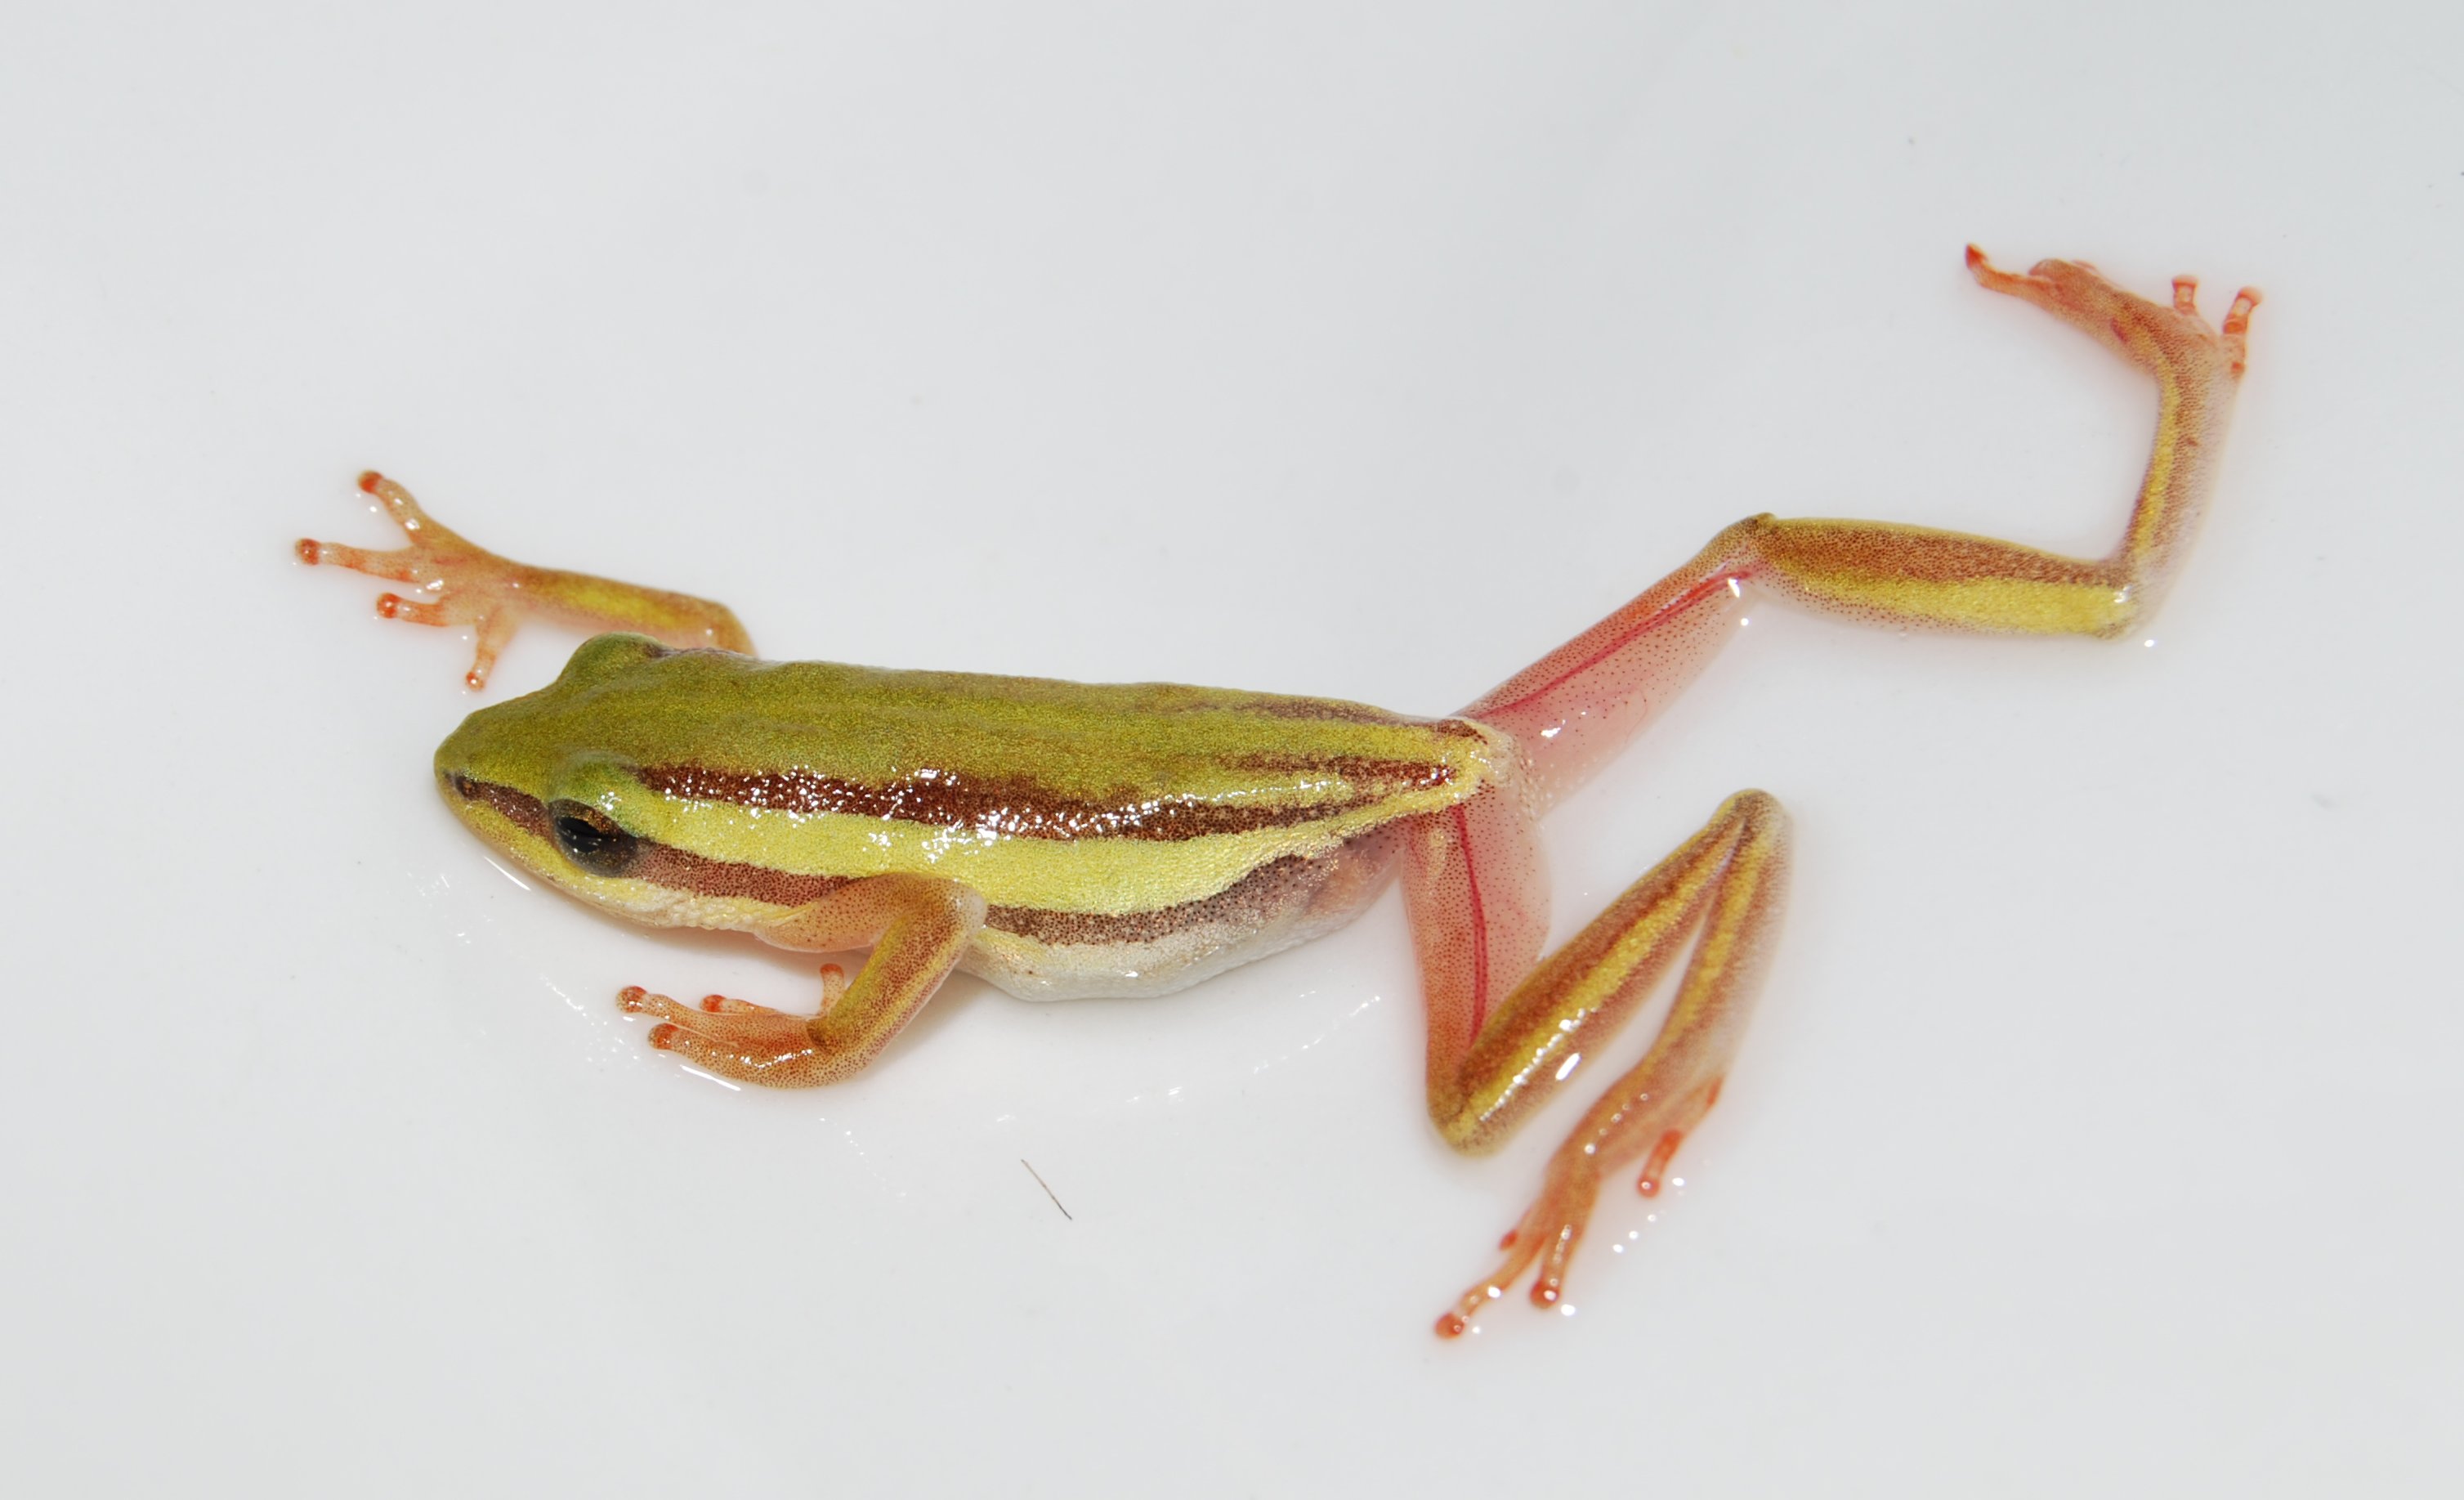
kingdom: Animalia
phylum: Chordata
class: Amphibia
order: Anura
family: Hyperoliidae
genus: Hyperolius
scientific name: Hyperolius cinnamomeoventris
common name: Duque reed frog
